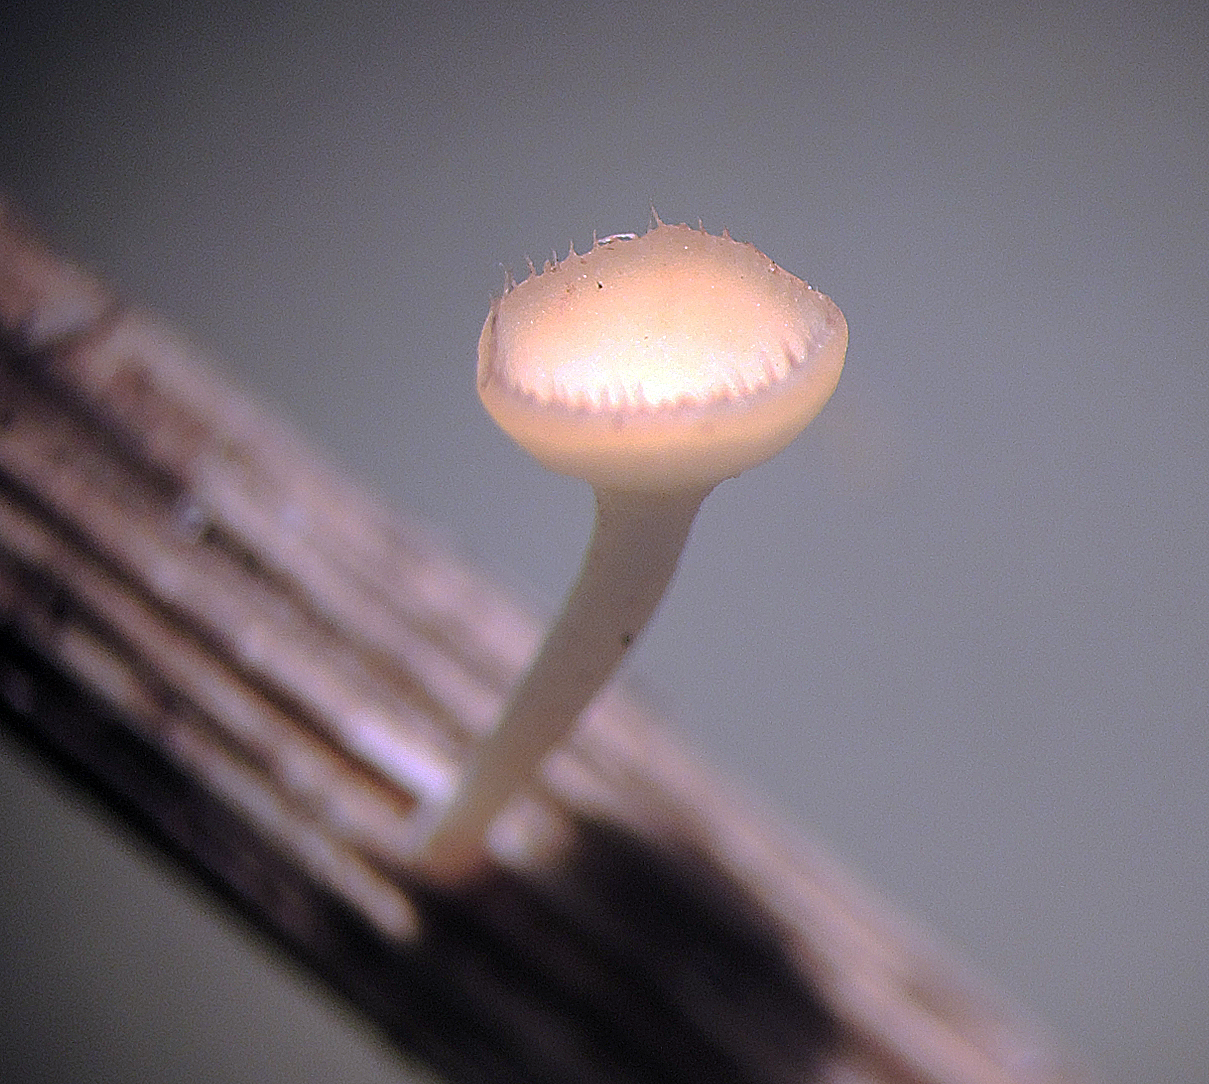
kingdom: Fungi
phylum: Ascomycota
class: Leotiomycetes
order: Helotiales
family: Helotiaceae
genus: Cyathicula
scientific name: Cyathicula coronata
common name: krone-stilkskive
